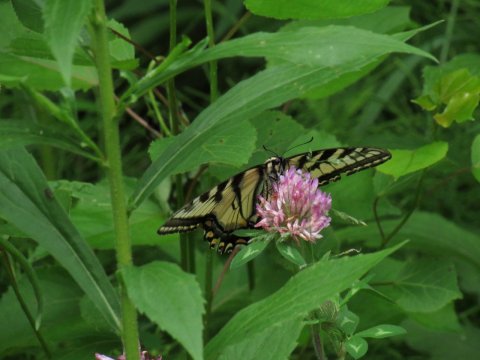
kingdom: Animalia
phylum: Arthropoda
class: Insecta
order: Lepidoptera
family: Papilionidae
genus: Pterourus
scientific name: Pterourus
